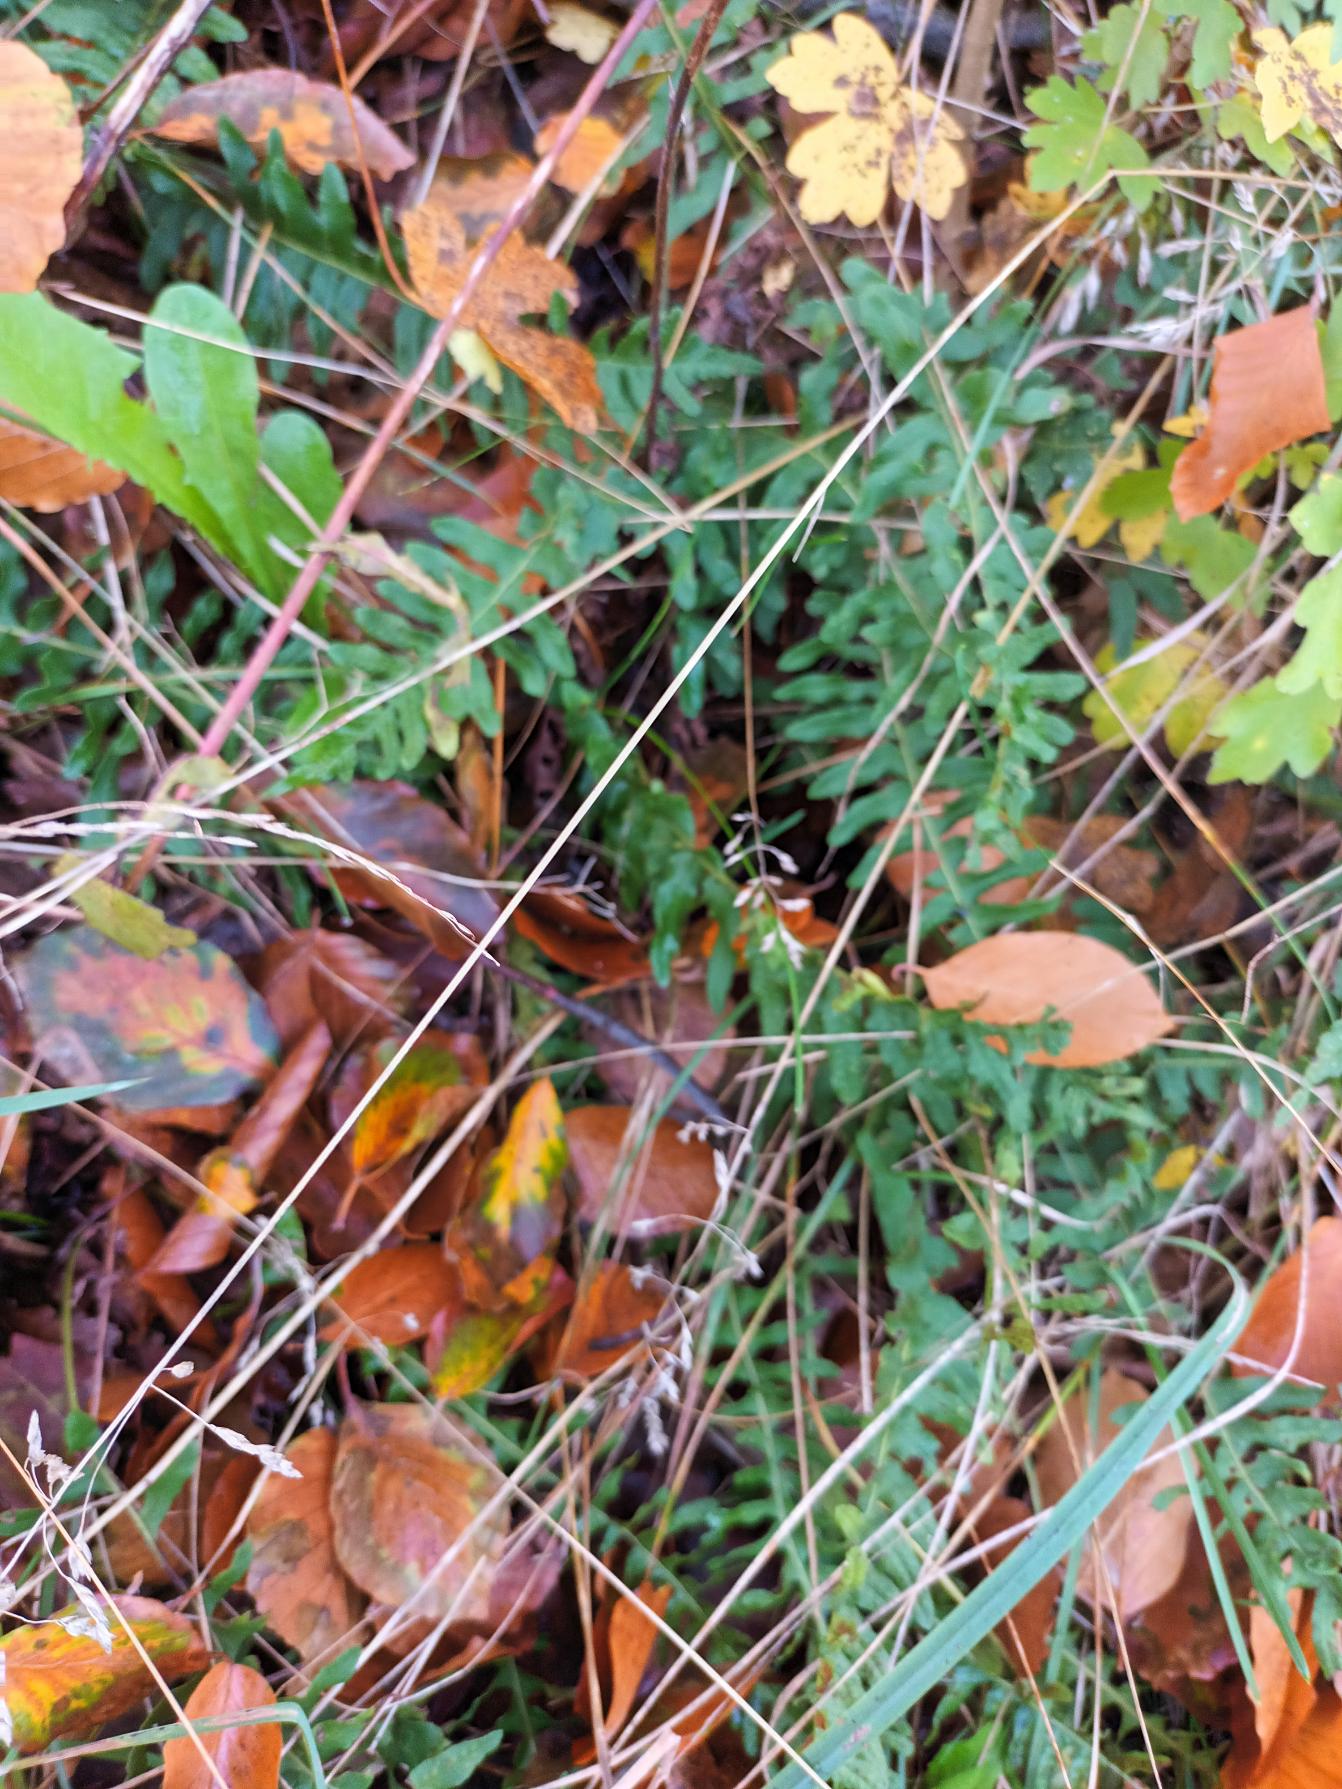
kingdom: Plantae
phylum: Tracheophyta
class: Polypodiopsida
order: Polypodiales
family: Polypodiaceae
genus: Polypodium
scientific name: Polypodium vulgare
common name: Almindelig engelsød
